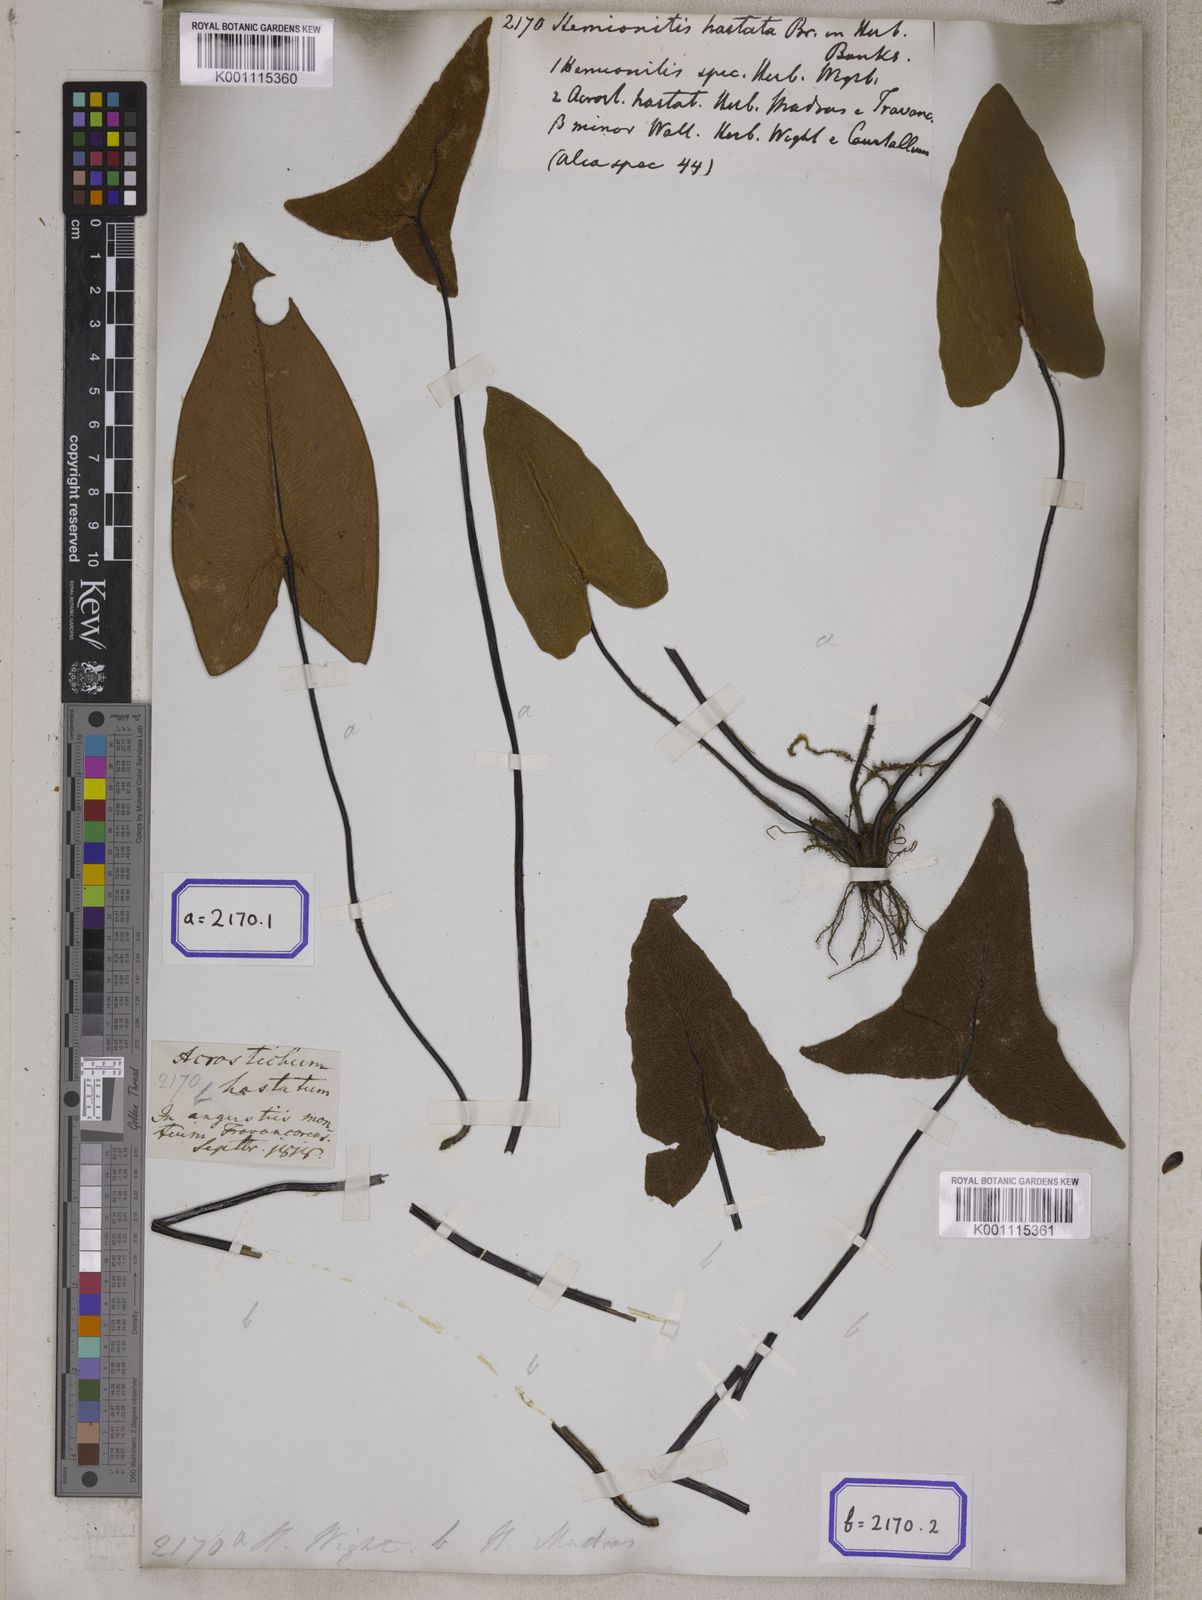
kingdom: Plantae
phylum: Tracheophyta
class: Polypodiopsida
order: Polypodiales
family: Pteridaceae
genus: Hemionitis
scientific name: Hemionitis
